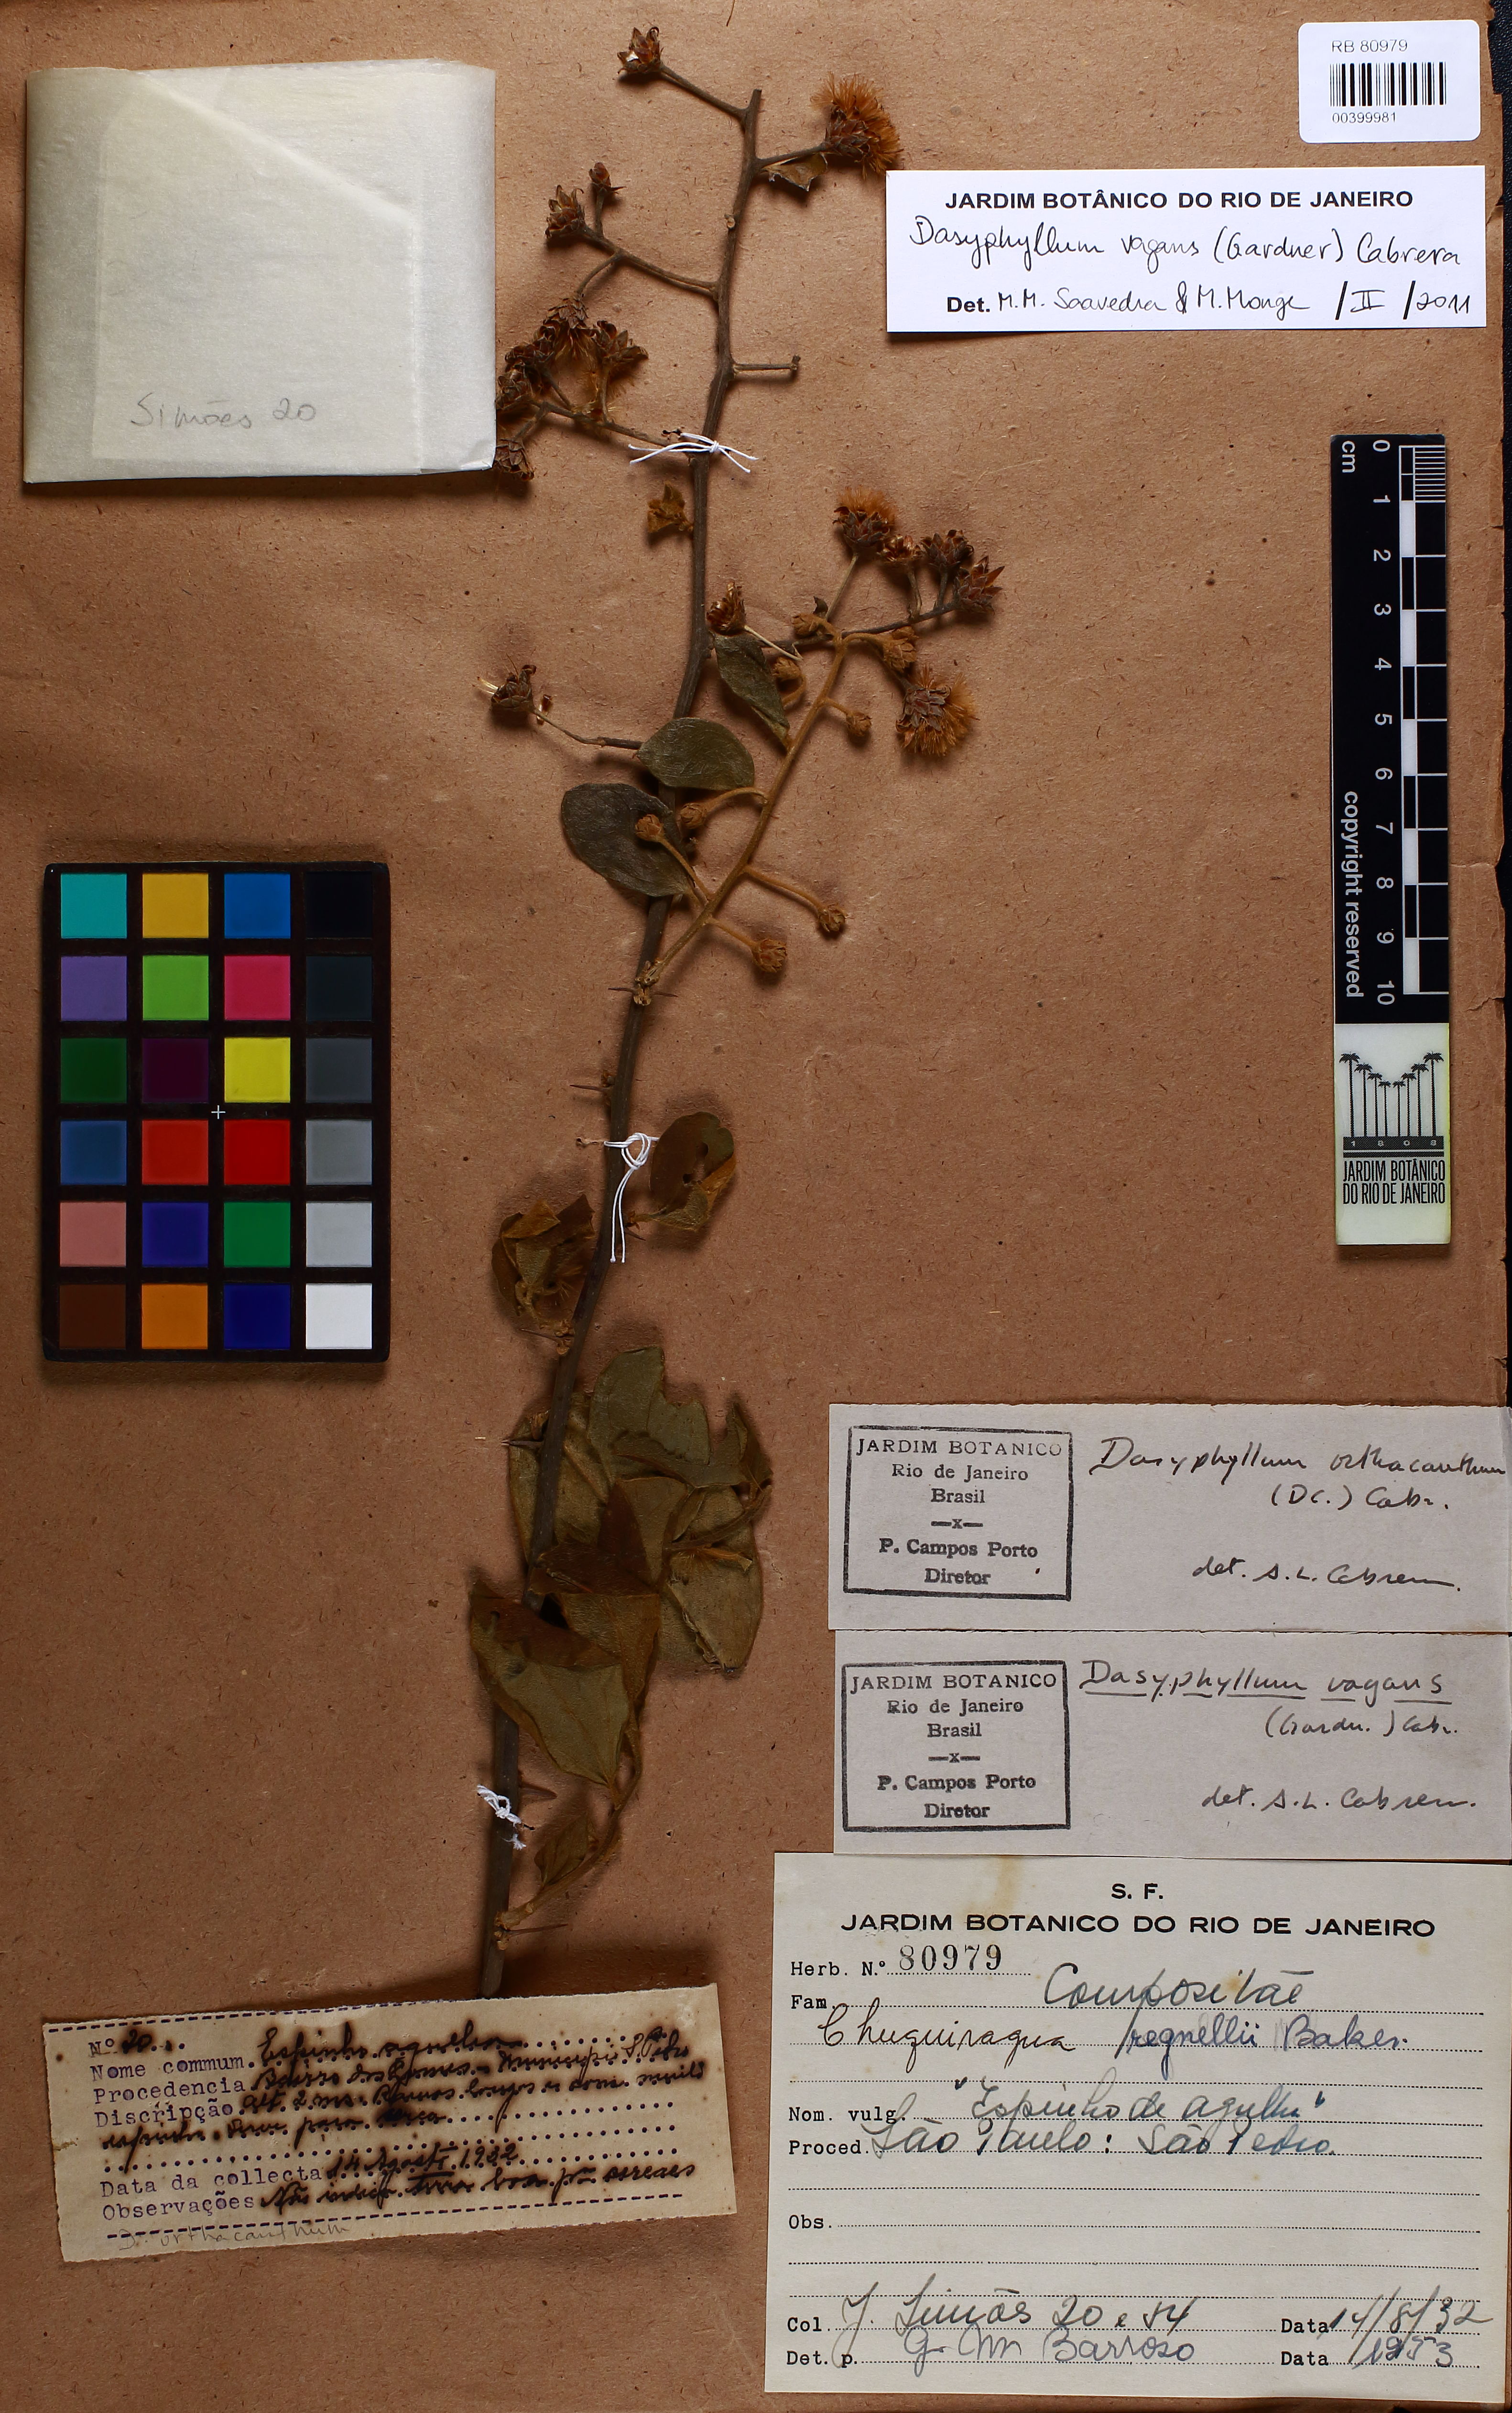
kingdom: Plantae
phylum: Tracheophyta
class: Magnoliopsida
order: Asterales
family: Asteraceae
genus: Dasyphyllum
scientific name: Dasyphyllum orthacanthum
